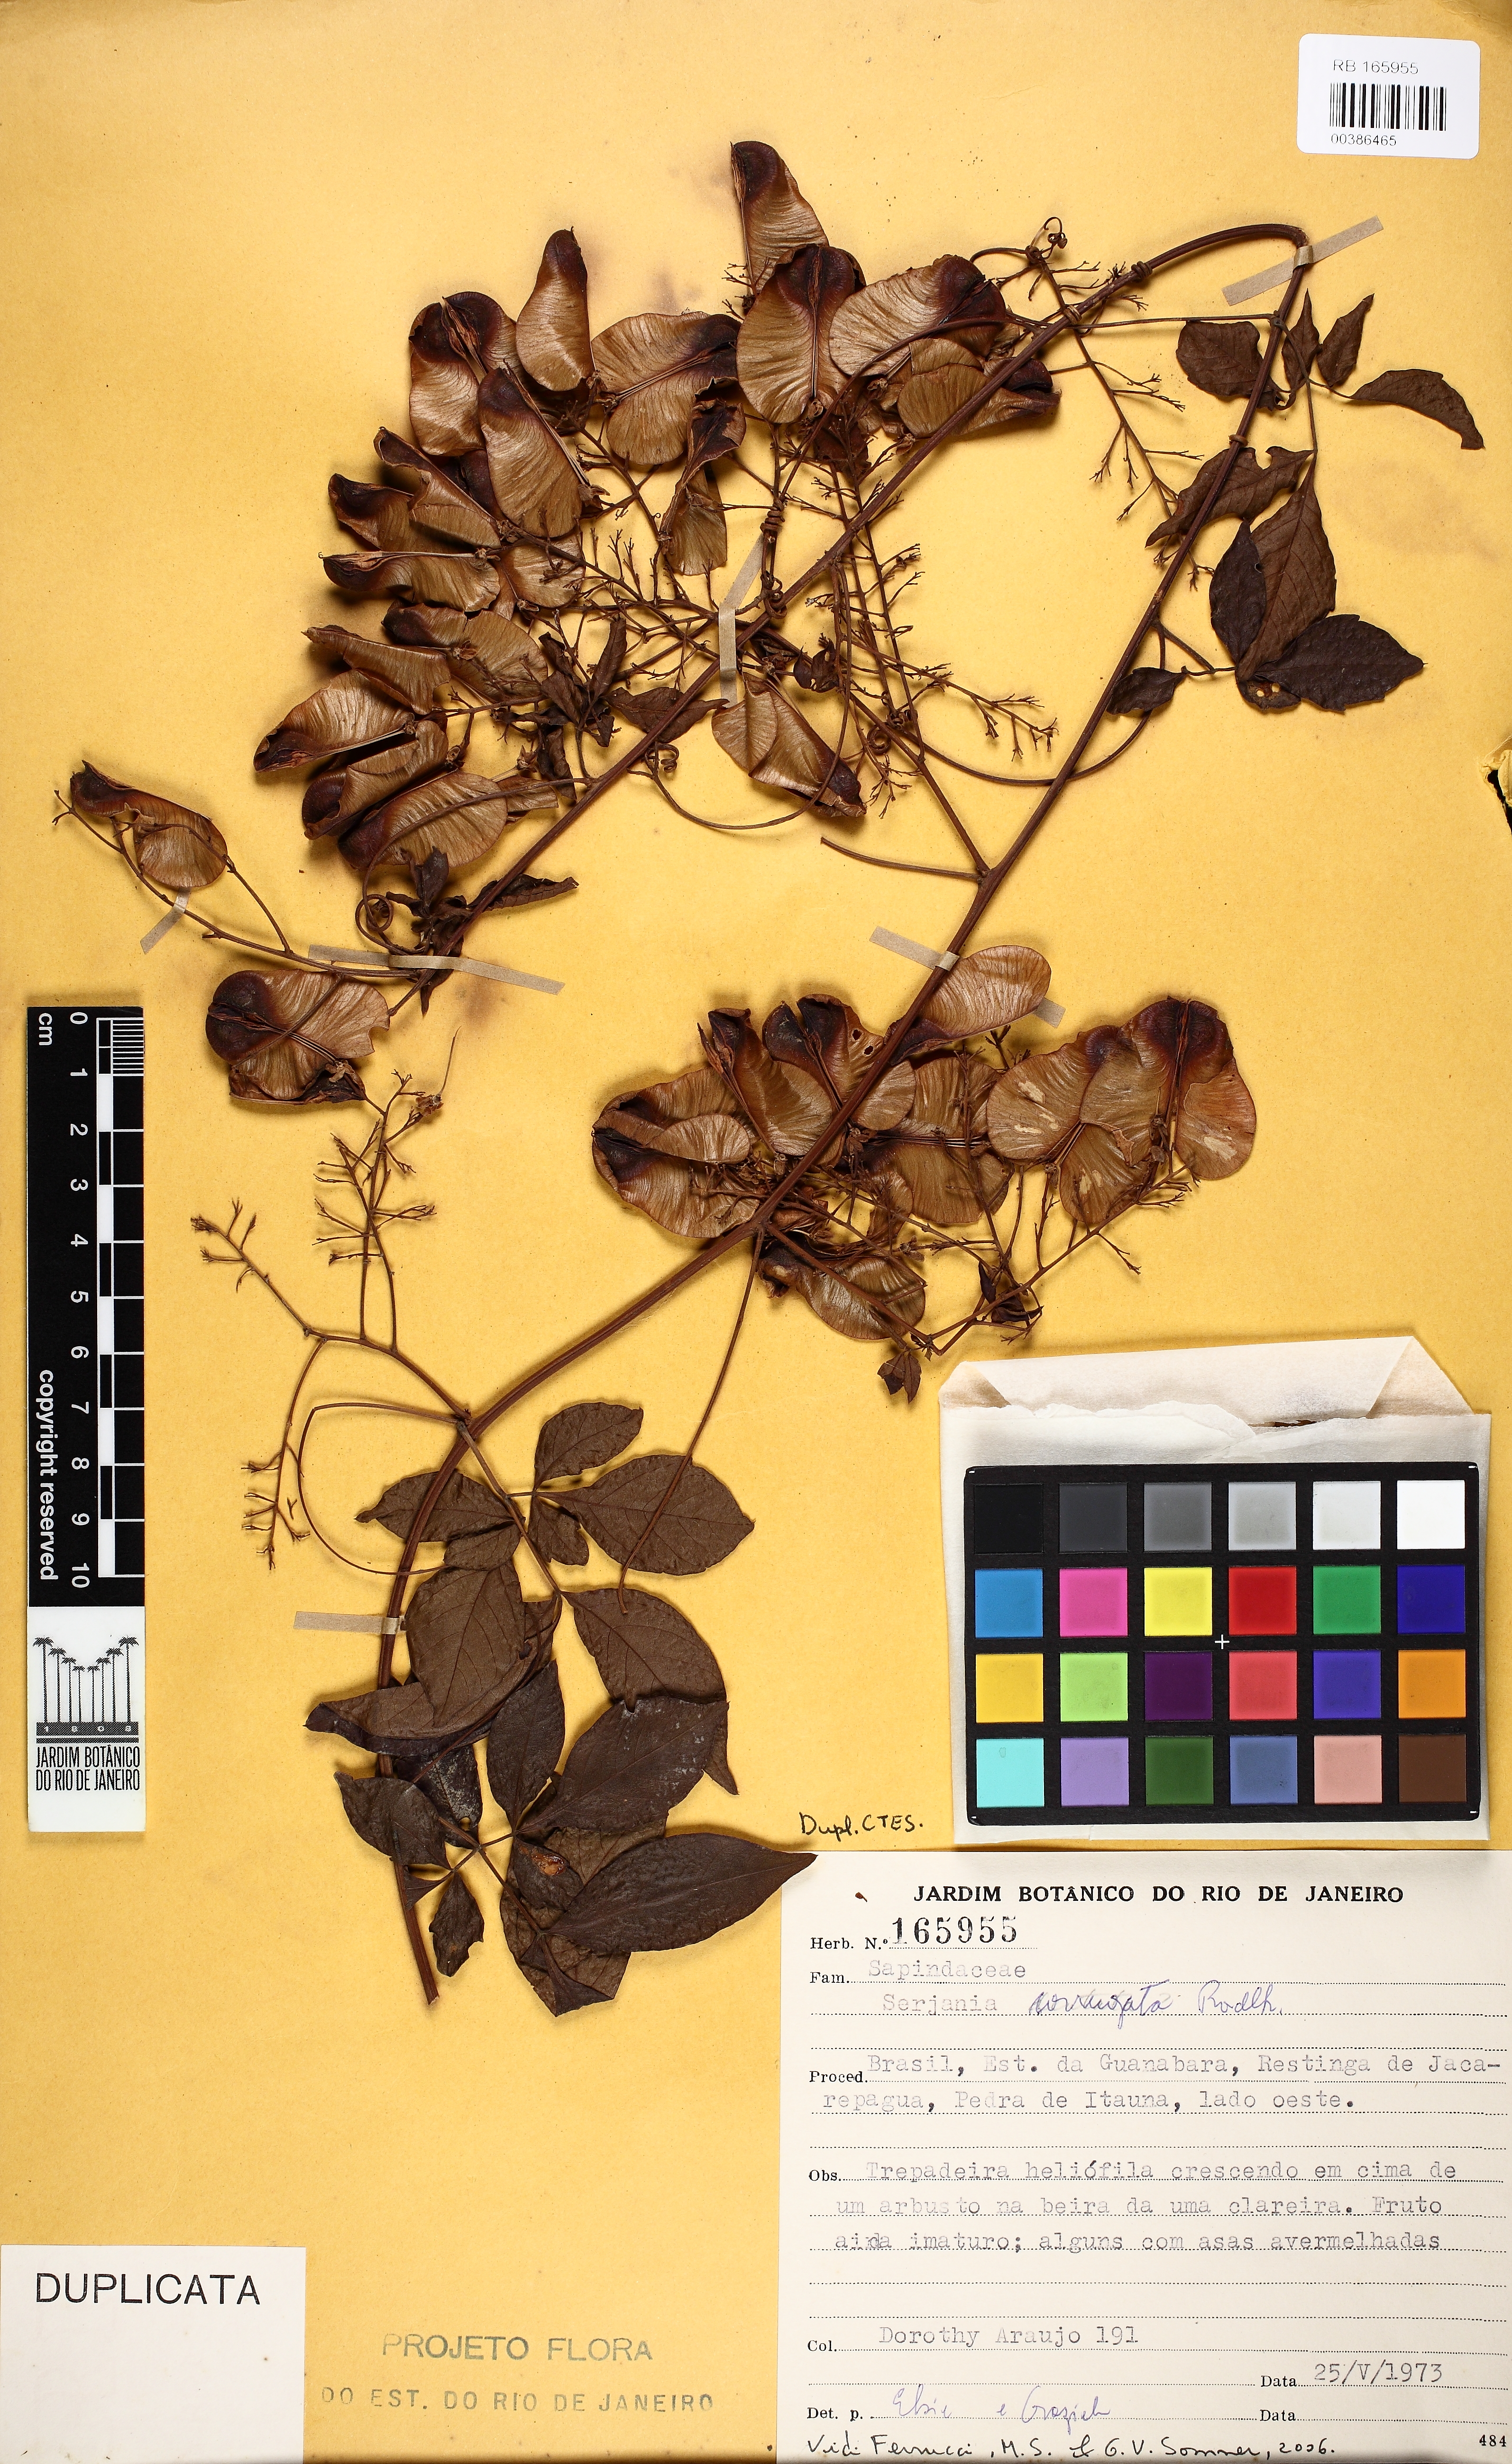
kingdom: Plantae
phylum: Tracheophyta
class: Magnoliopsida
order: Sapindales
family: Sapindaceae
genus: Serjania
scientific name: Serjania corrugata
